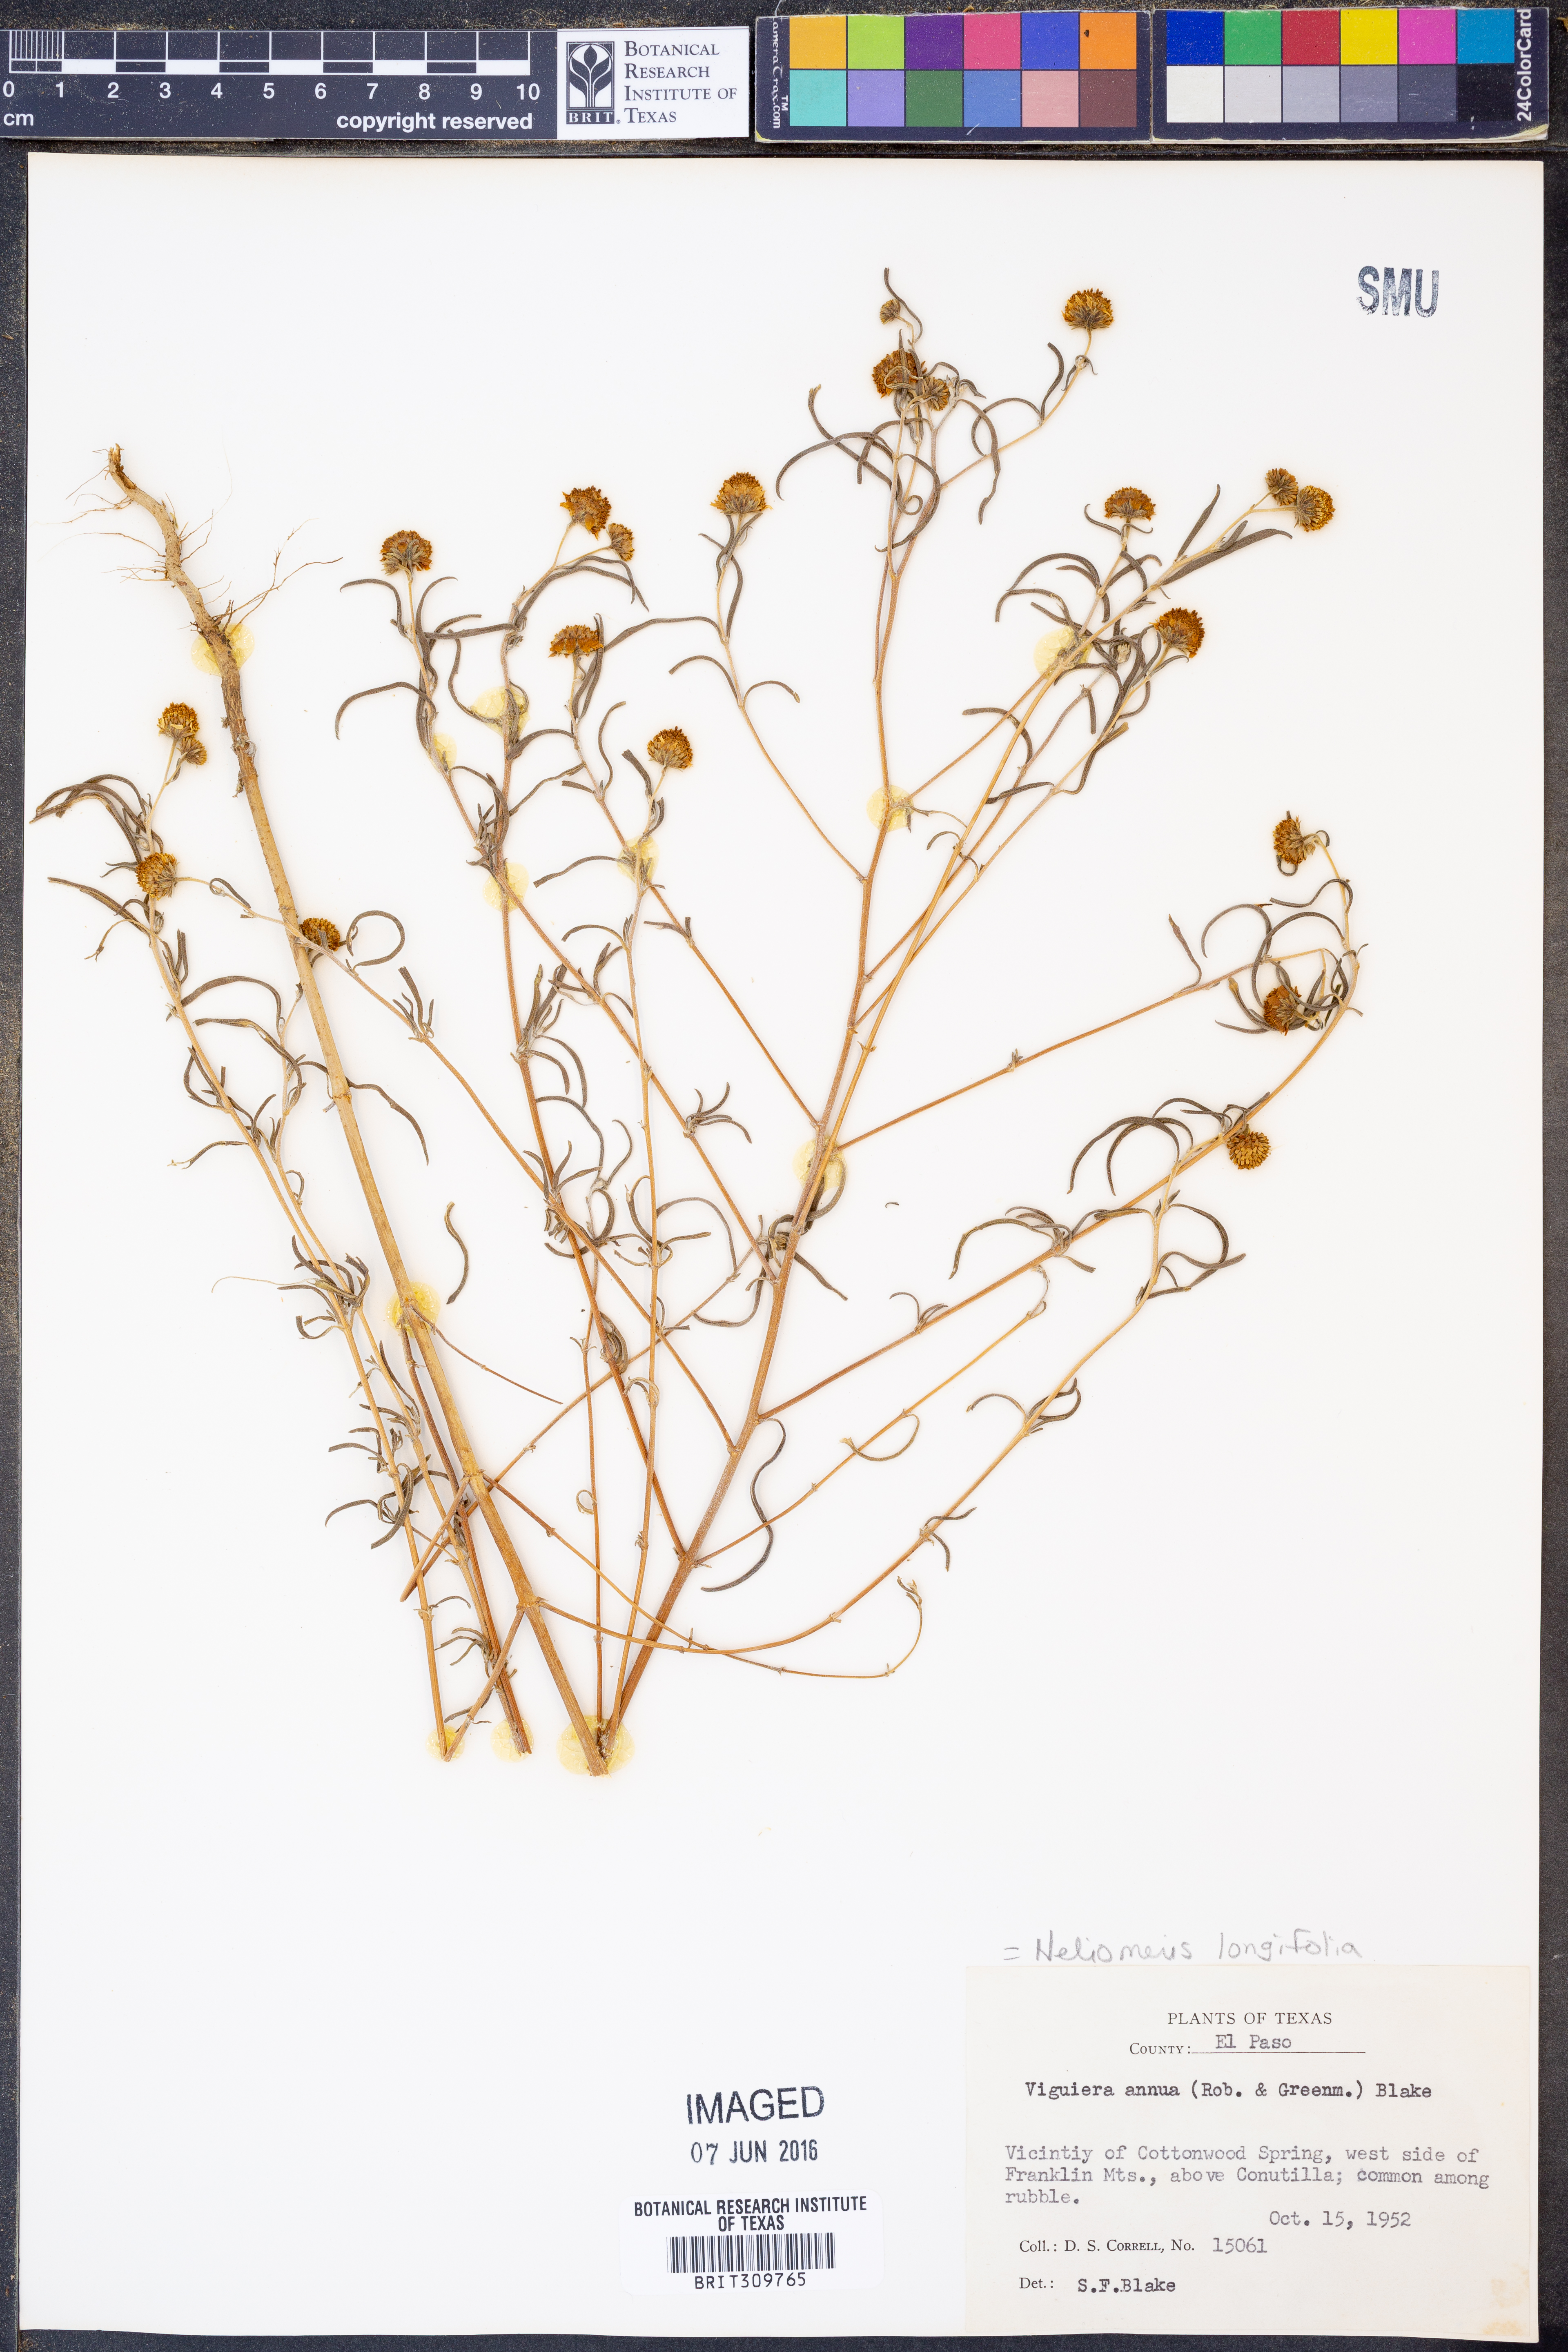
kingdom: Plantae
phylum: Tracheophyta
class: Magnoliopsida
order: Asterales
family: Asteraceae
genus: Heliomeris
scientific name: Heliomeris longifolia
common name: Longleaf false goldeneye
